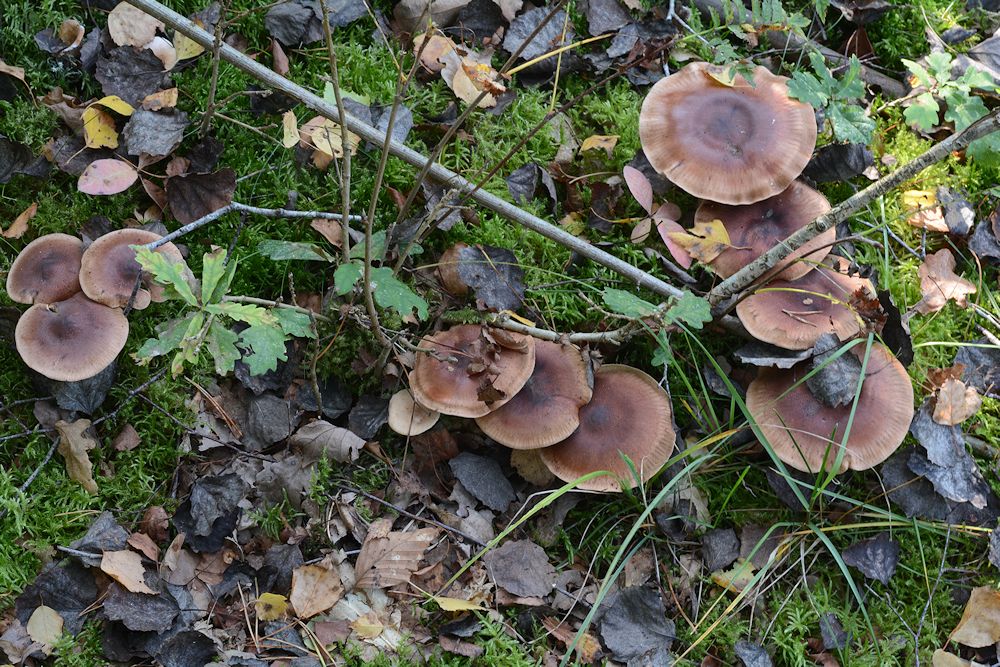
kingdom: Fungi
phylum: Basidiomycota
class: Agaricomycetes
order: Agaricales
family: Tricholomataceae
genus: Tricholoma
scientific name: Tricholoma fulvum
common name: birke-ridderhat
